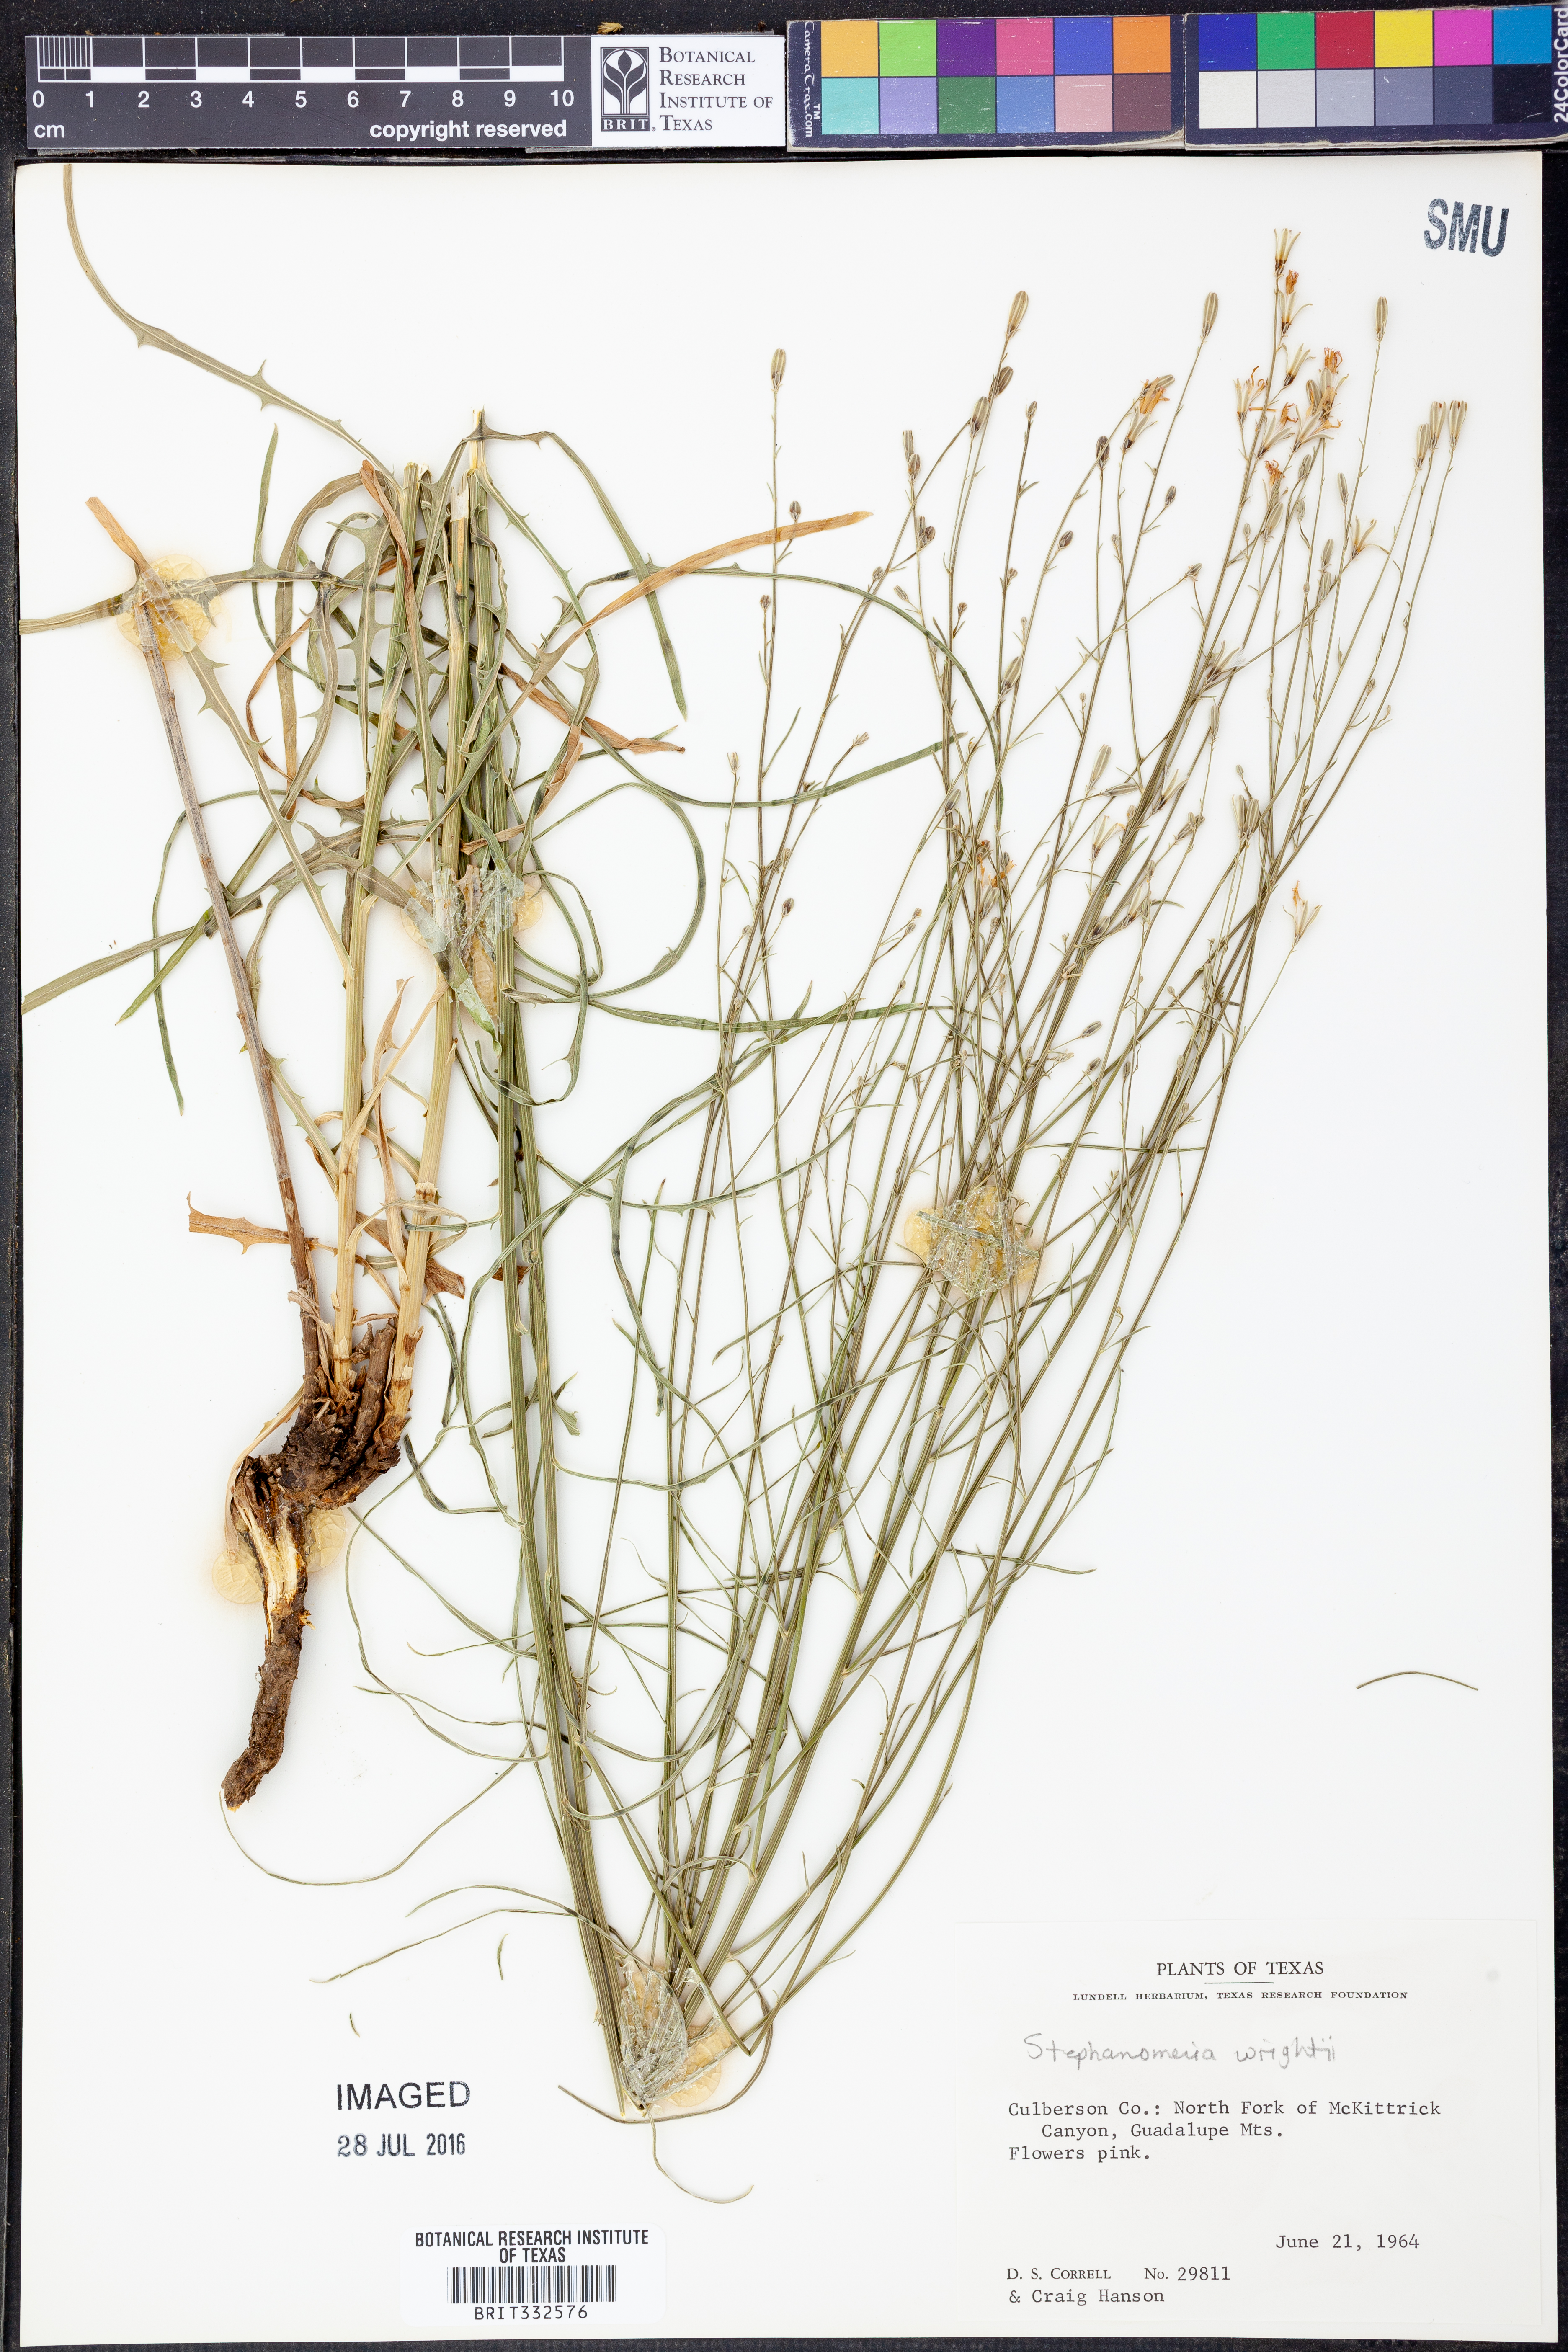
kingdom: Plantae
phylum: Tracheophyta
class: Magnoliopsida
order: Asterales
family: Asteraceae
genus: Stephanomeria
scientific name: Stephanomeria tenuifolia
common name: Slender wirelettuce
